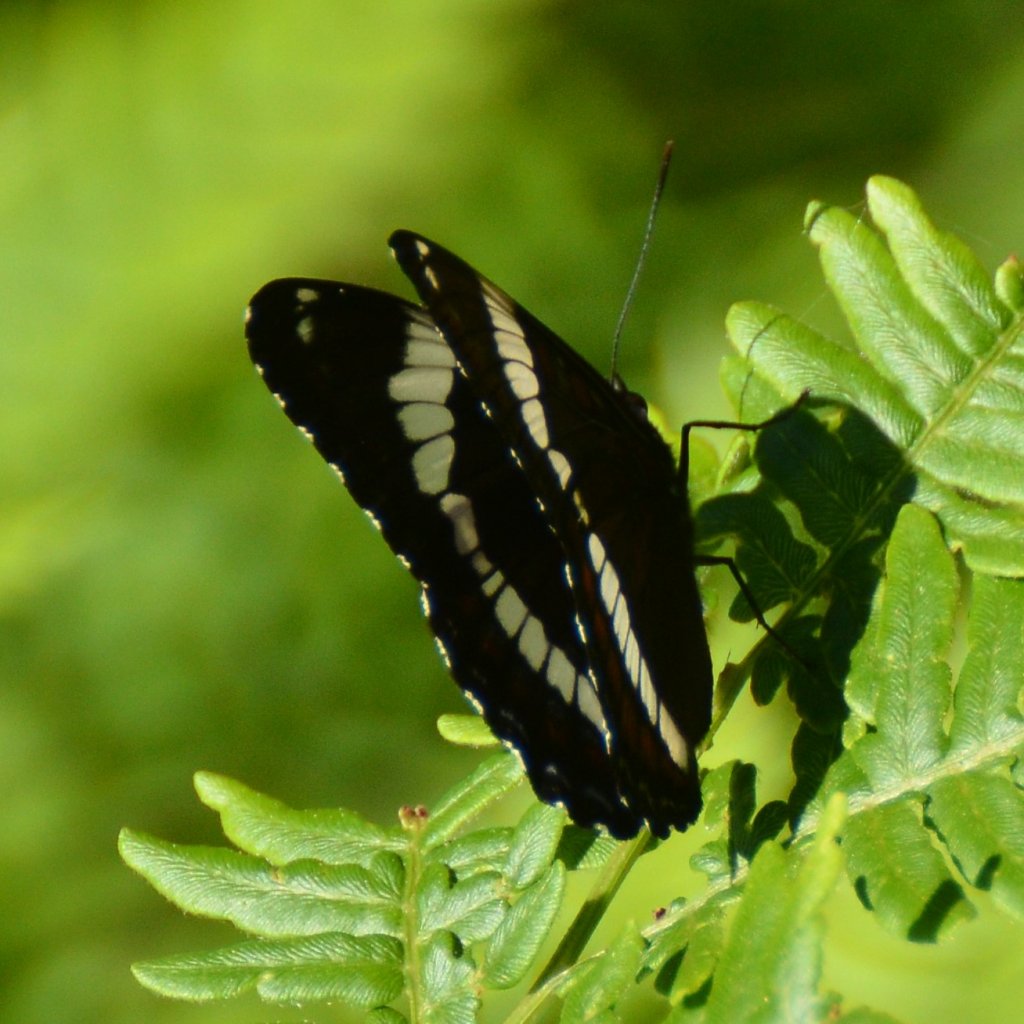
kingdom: Animalia
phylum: Arthropoda
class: Insecta
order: Lepidoptera
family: Nymphalidae
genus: Limenitis
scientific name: Limenitis arthemis
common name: Red-spotted Admiral
